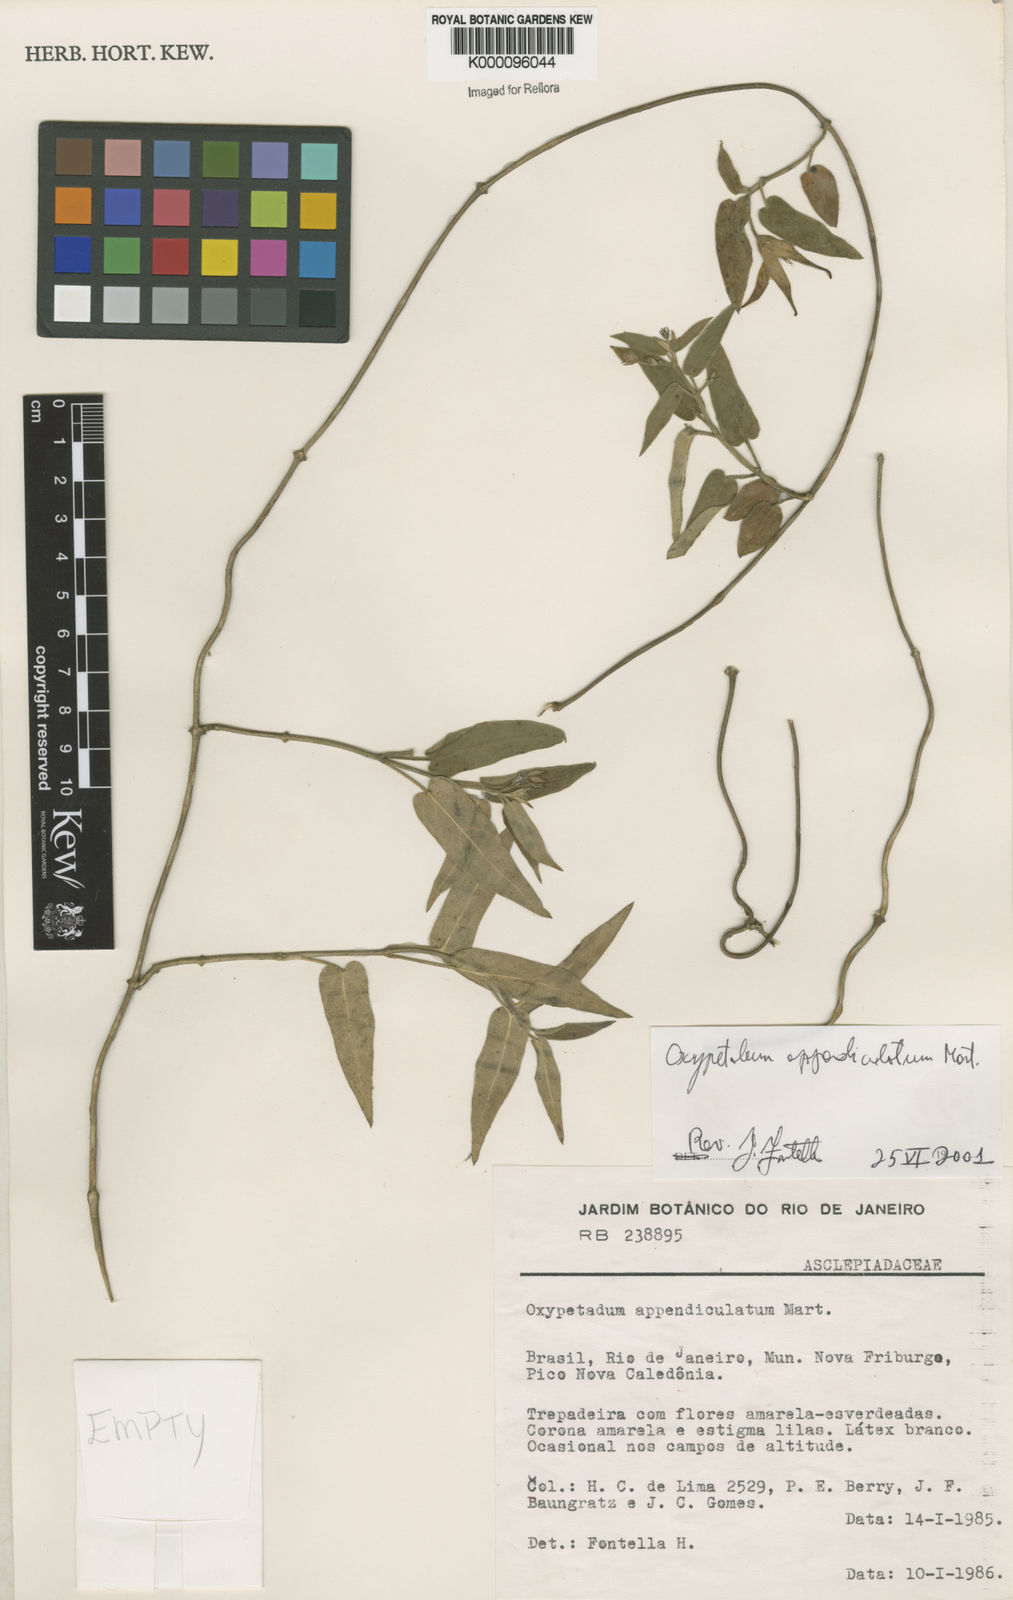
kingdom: Plantae
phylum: Tracheophyta
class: Magnoliopsida
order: Gentianales
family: Apocynaceae
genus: Oxypetalum
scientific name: Oxypetalum appendiculatum
